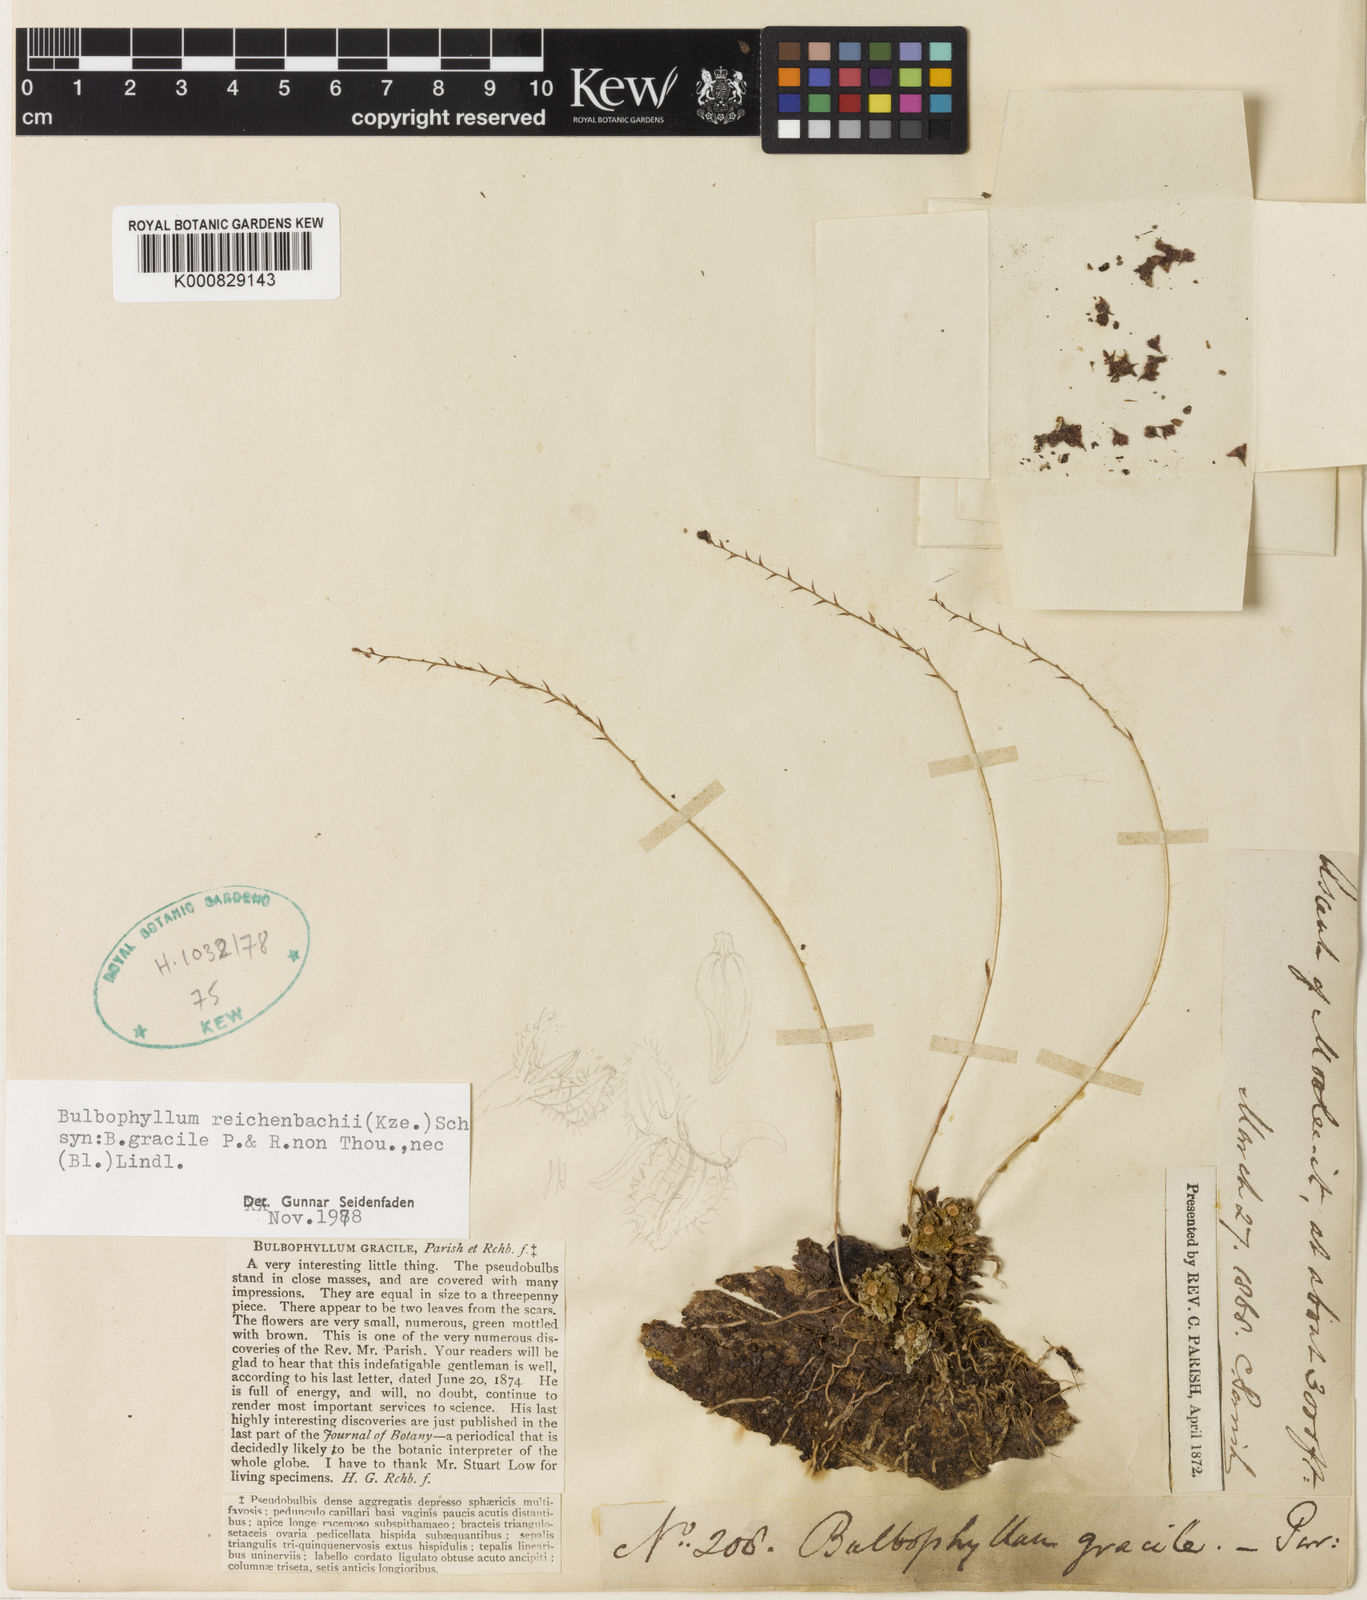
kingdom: Plantae
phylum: Tracheophyta
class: Liliopsida
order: Asparagales
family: Orchidaceae
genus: Bulbophyllum
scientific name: Bulbophyllum reichenbachii
